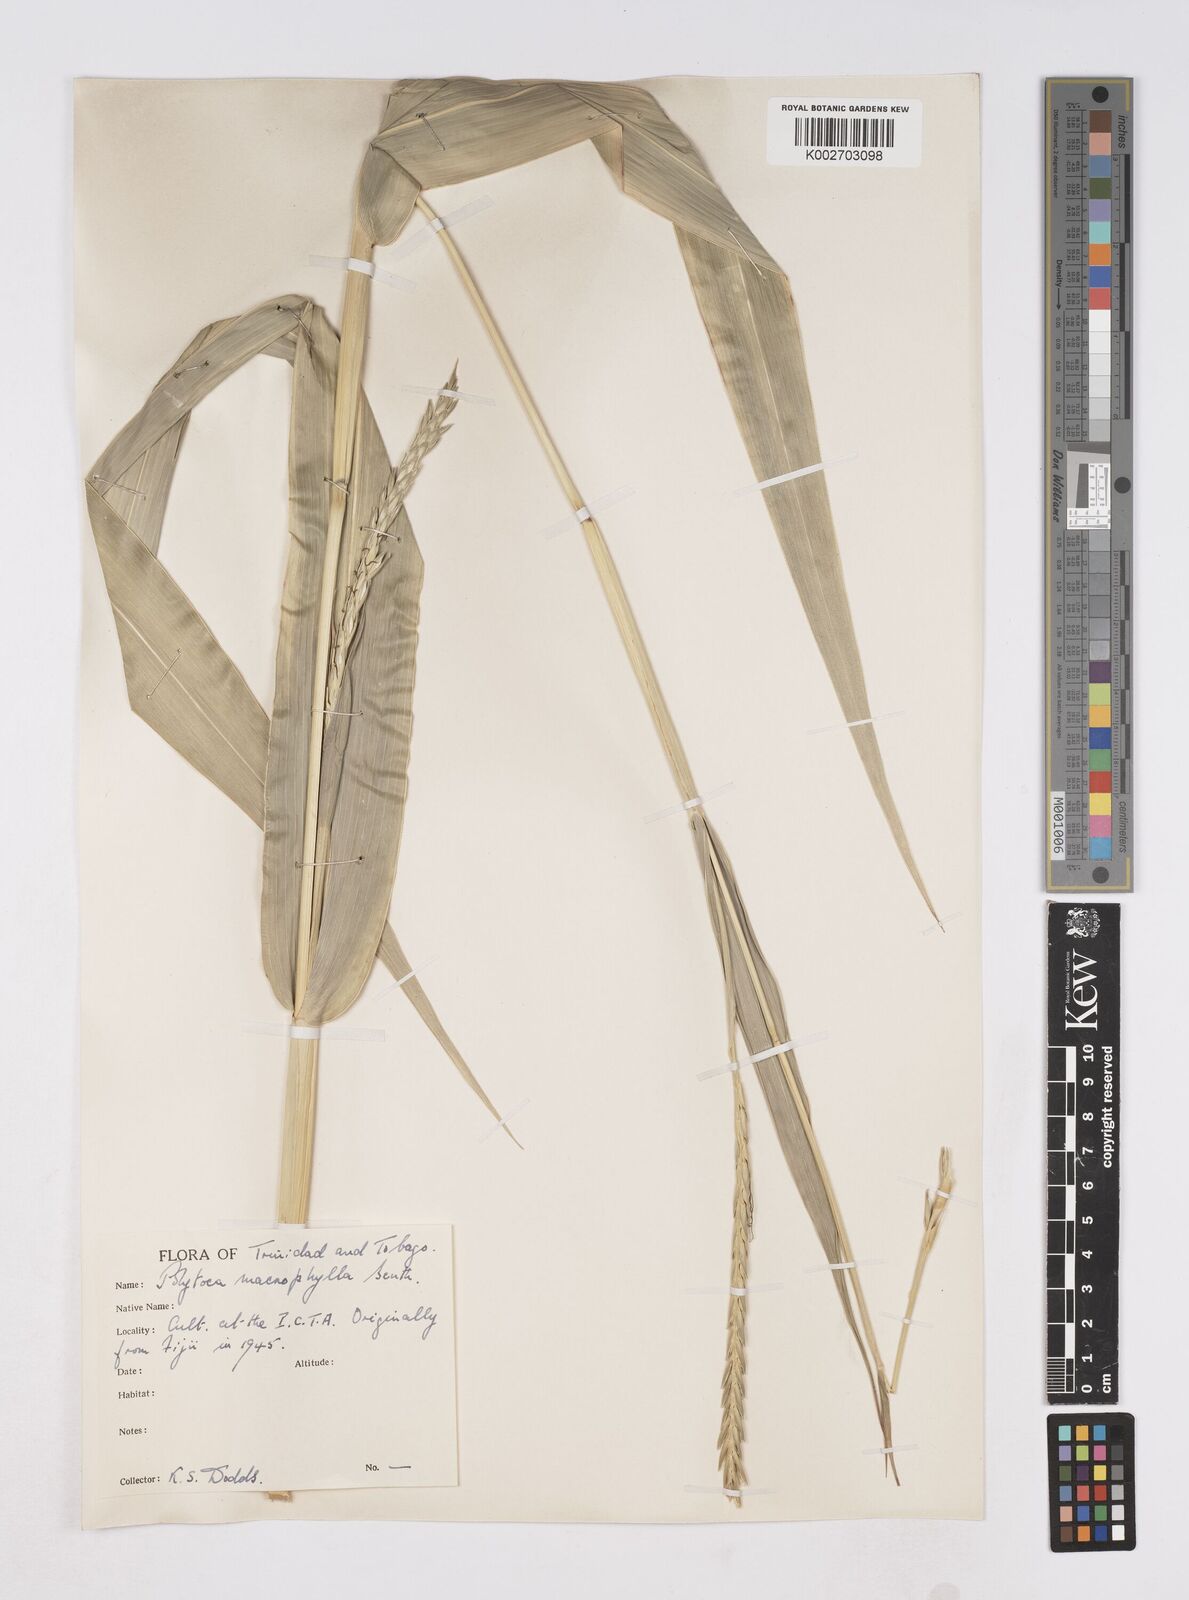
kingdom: Plantae
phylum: Tracheophyta
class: Liliopsida
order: Poales
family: Poaceae
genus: Polytoca
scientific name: Polytoca macrophylla
